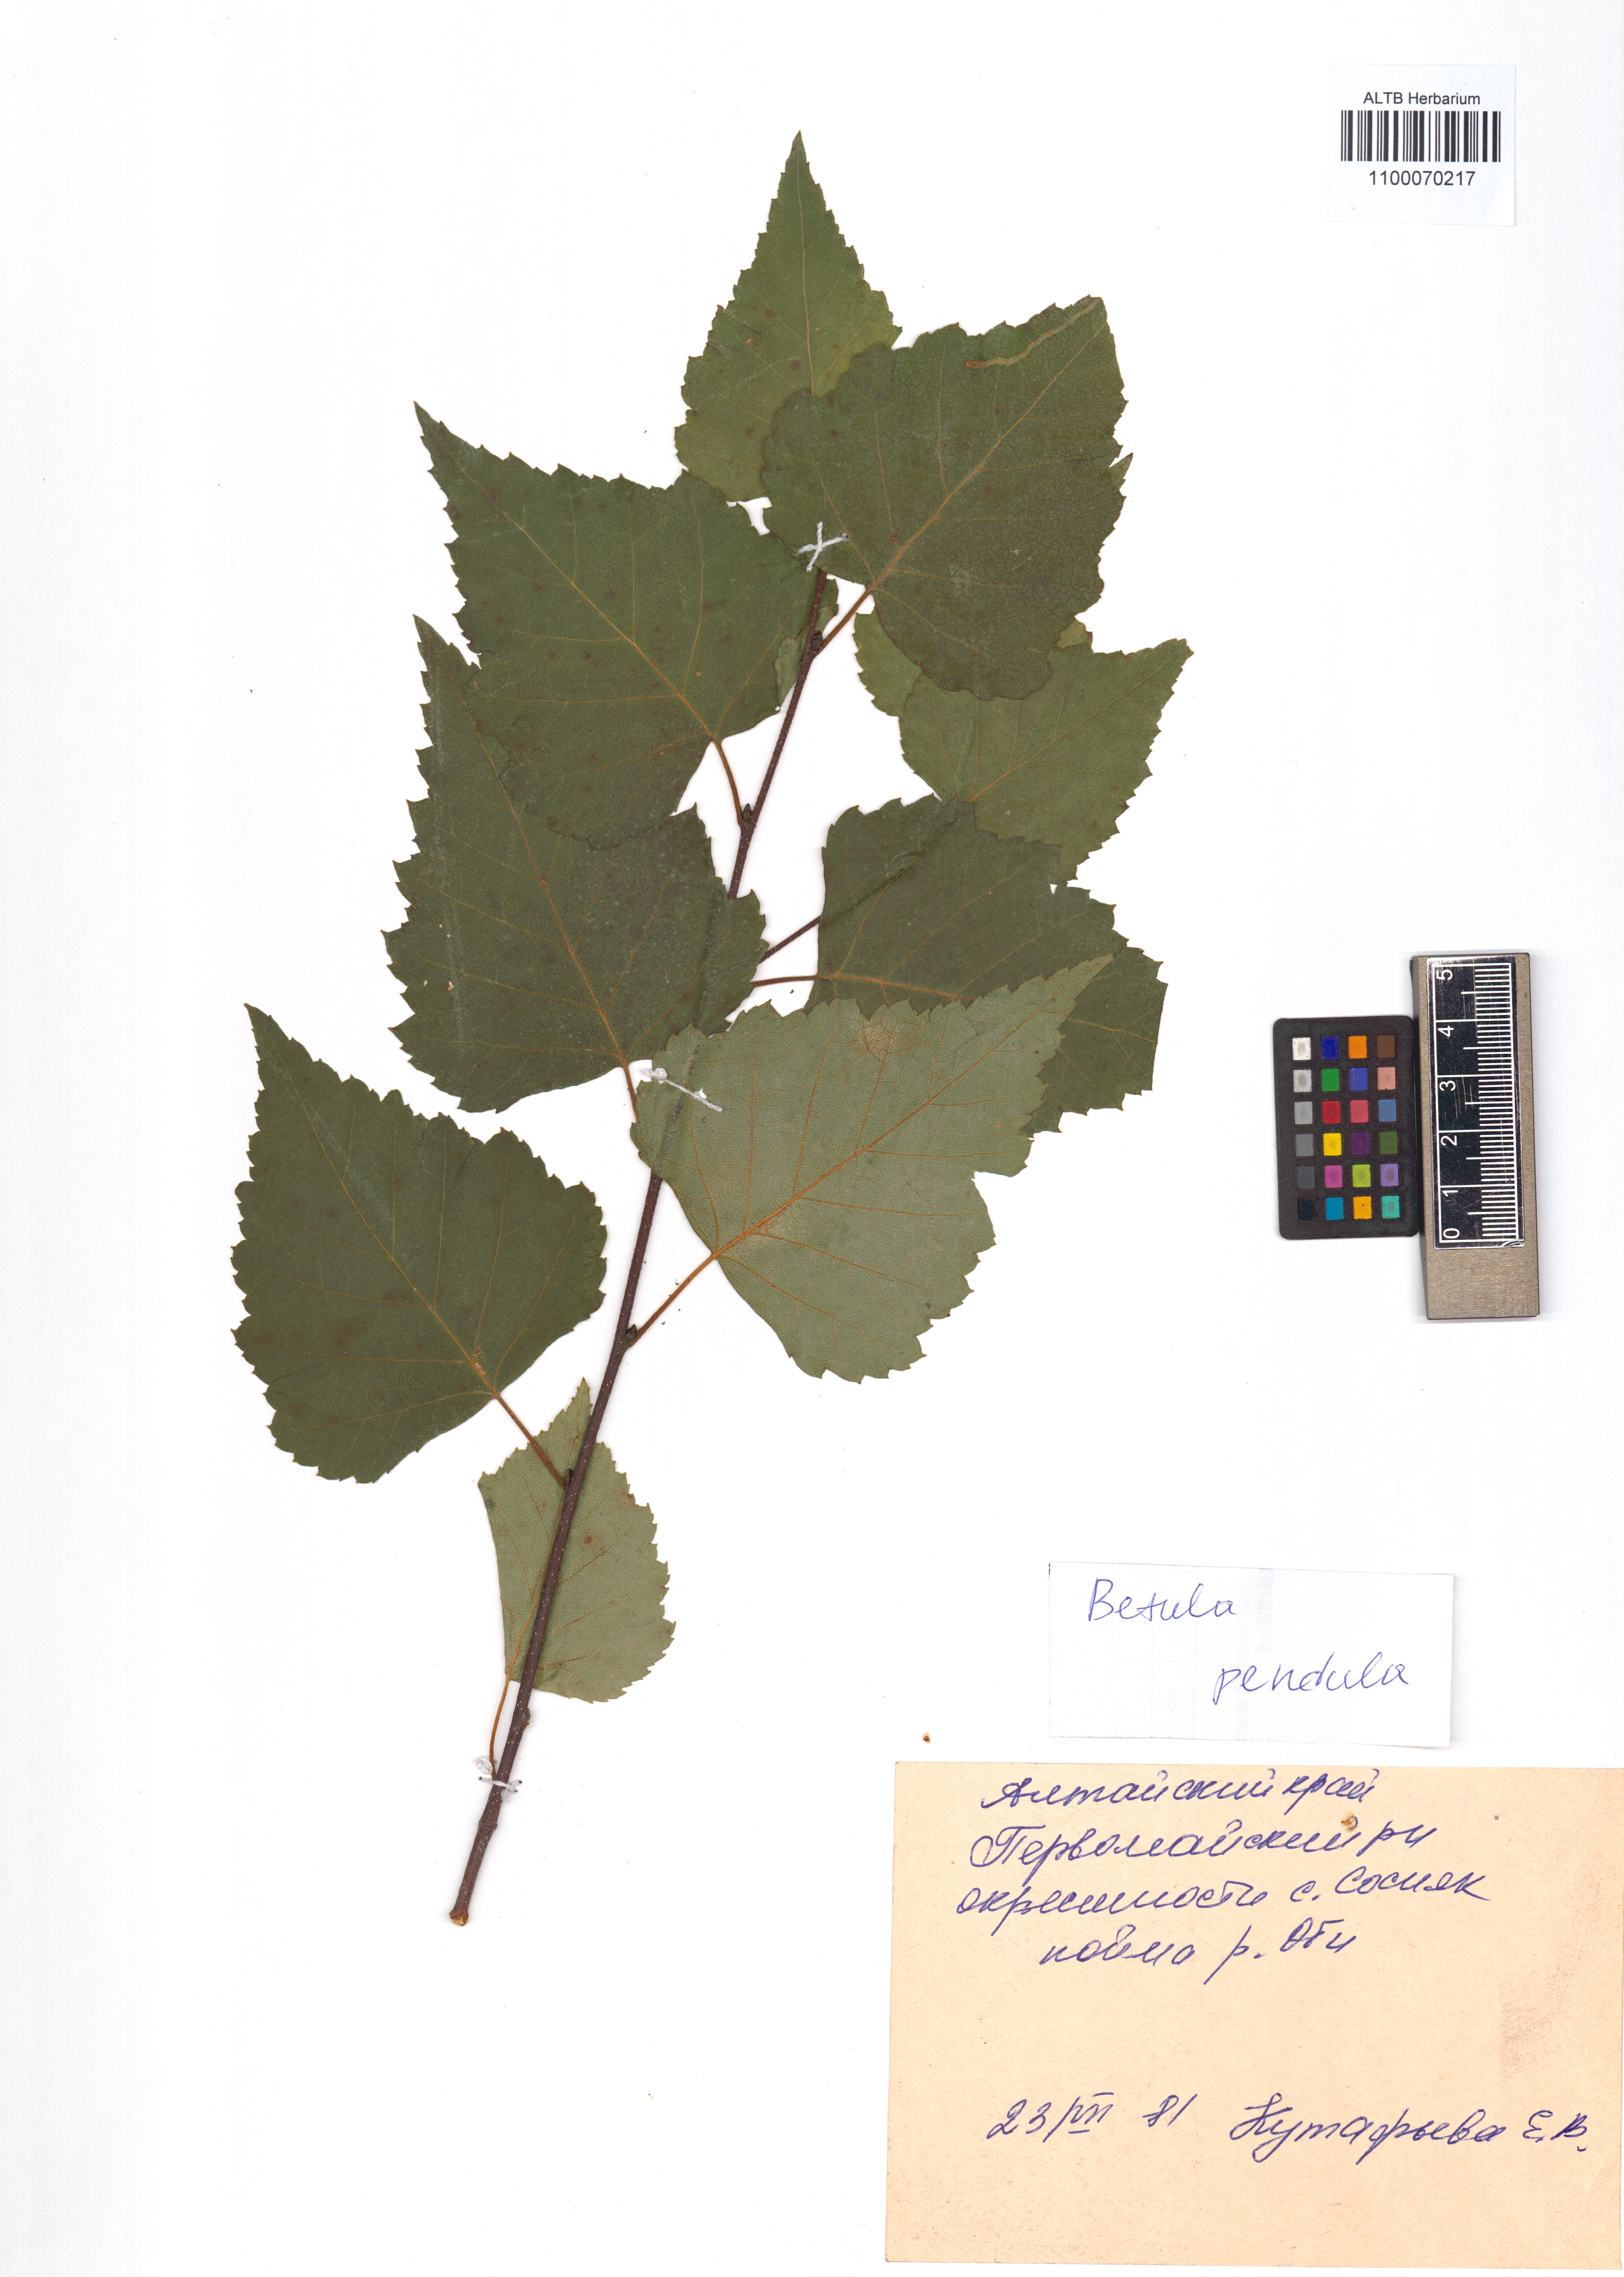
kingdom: Plantae
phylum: Tracheophyta
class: Magnoliopsida
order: Fagales
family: Betulaceae
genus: Betula
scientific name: Betula pendula
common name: Silver birch
